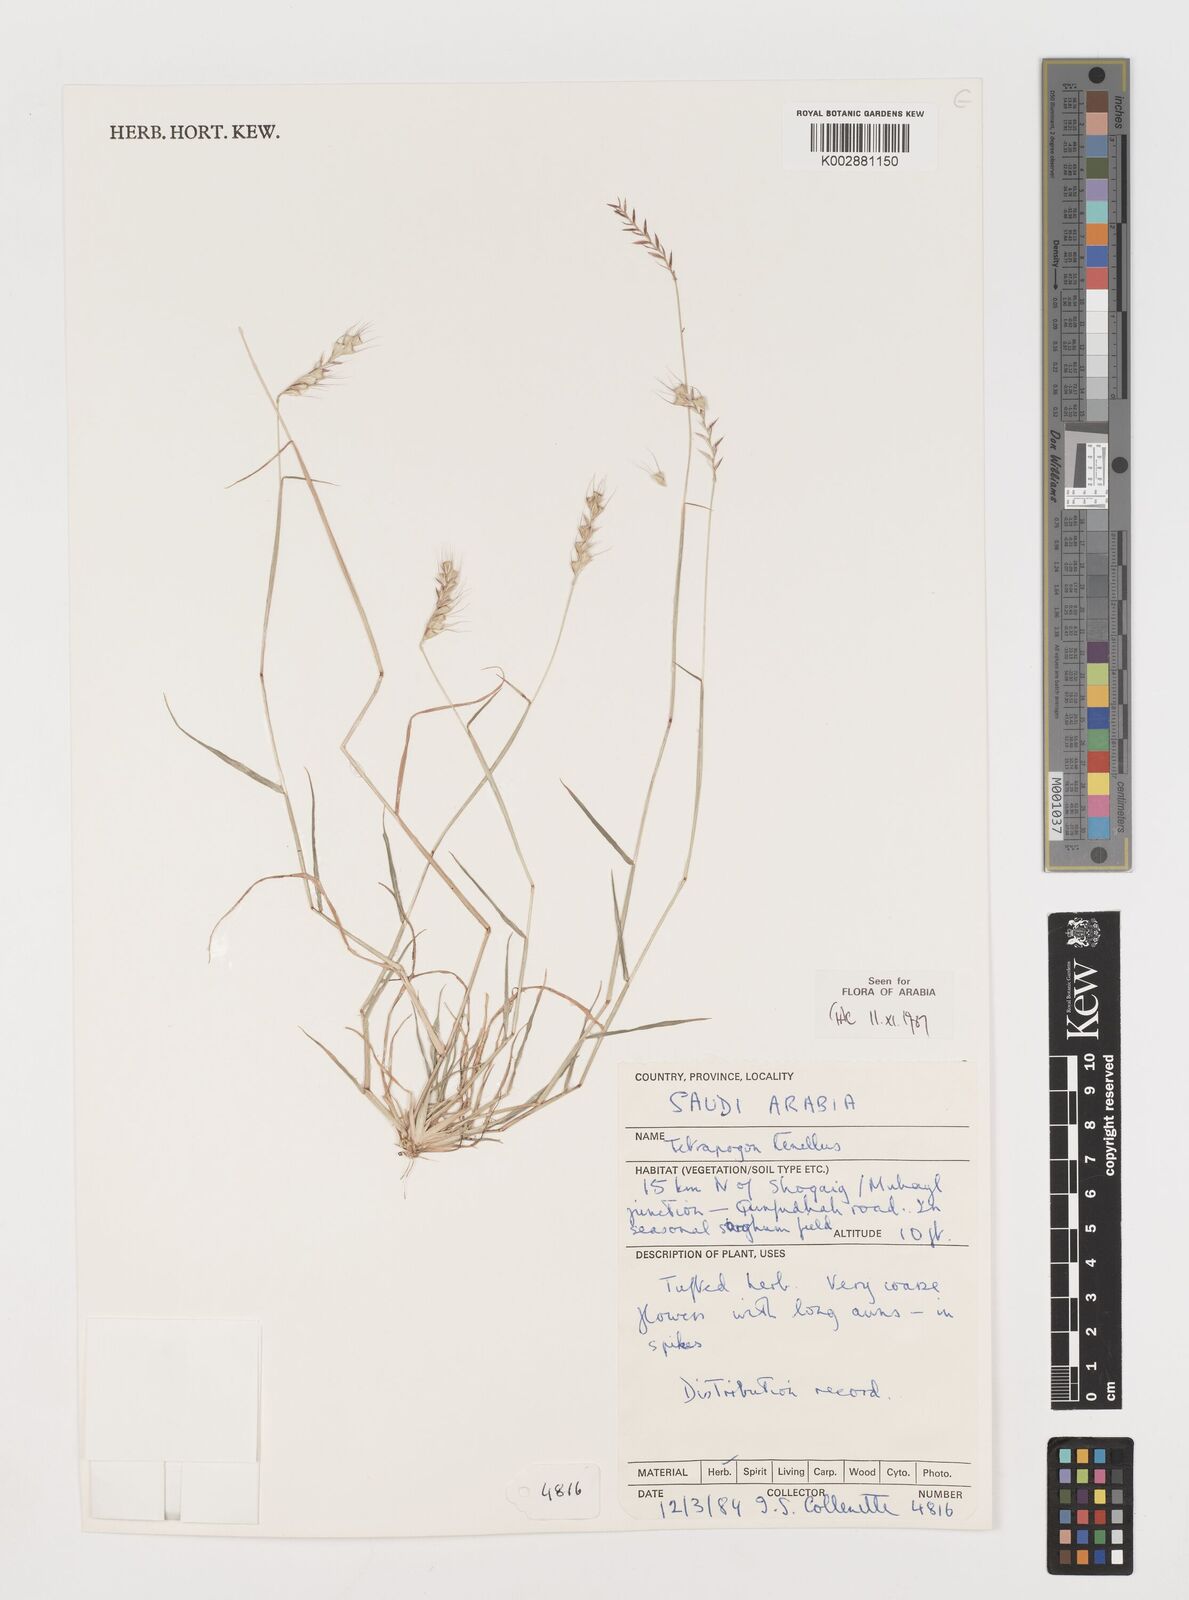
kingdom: Plantae
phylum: Tracheophyta
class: Liliopsida
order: Poales
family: Poaceae
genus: Tetrapogon
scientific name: Tetrapogon tenellus
